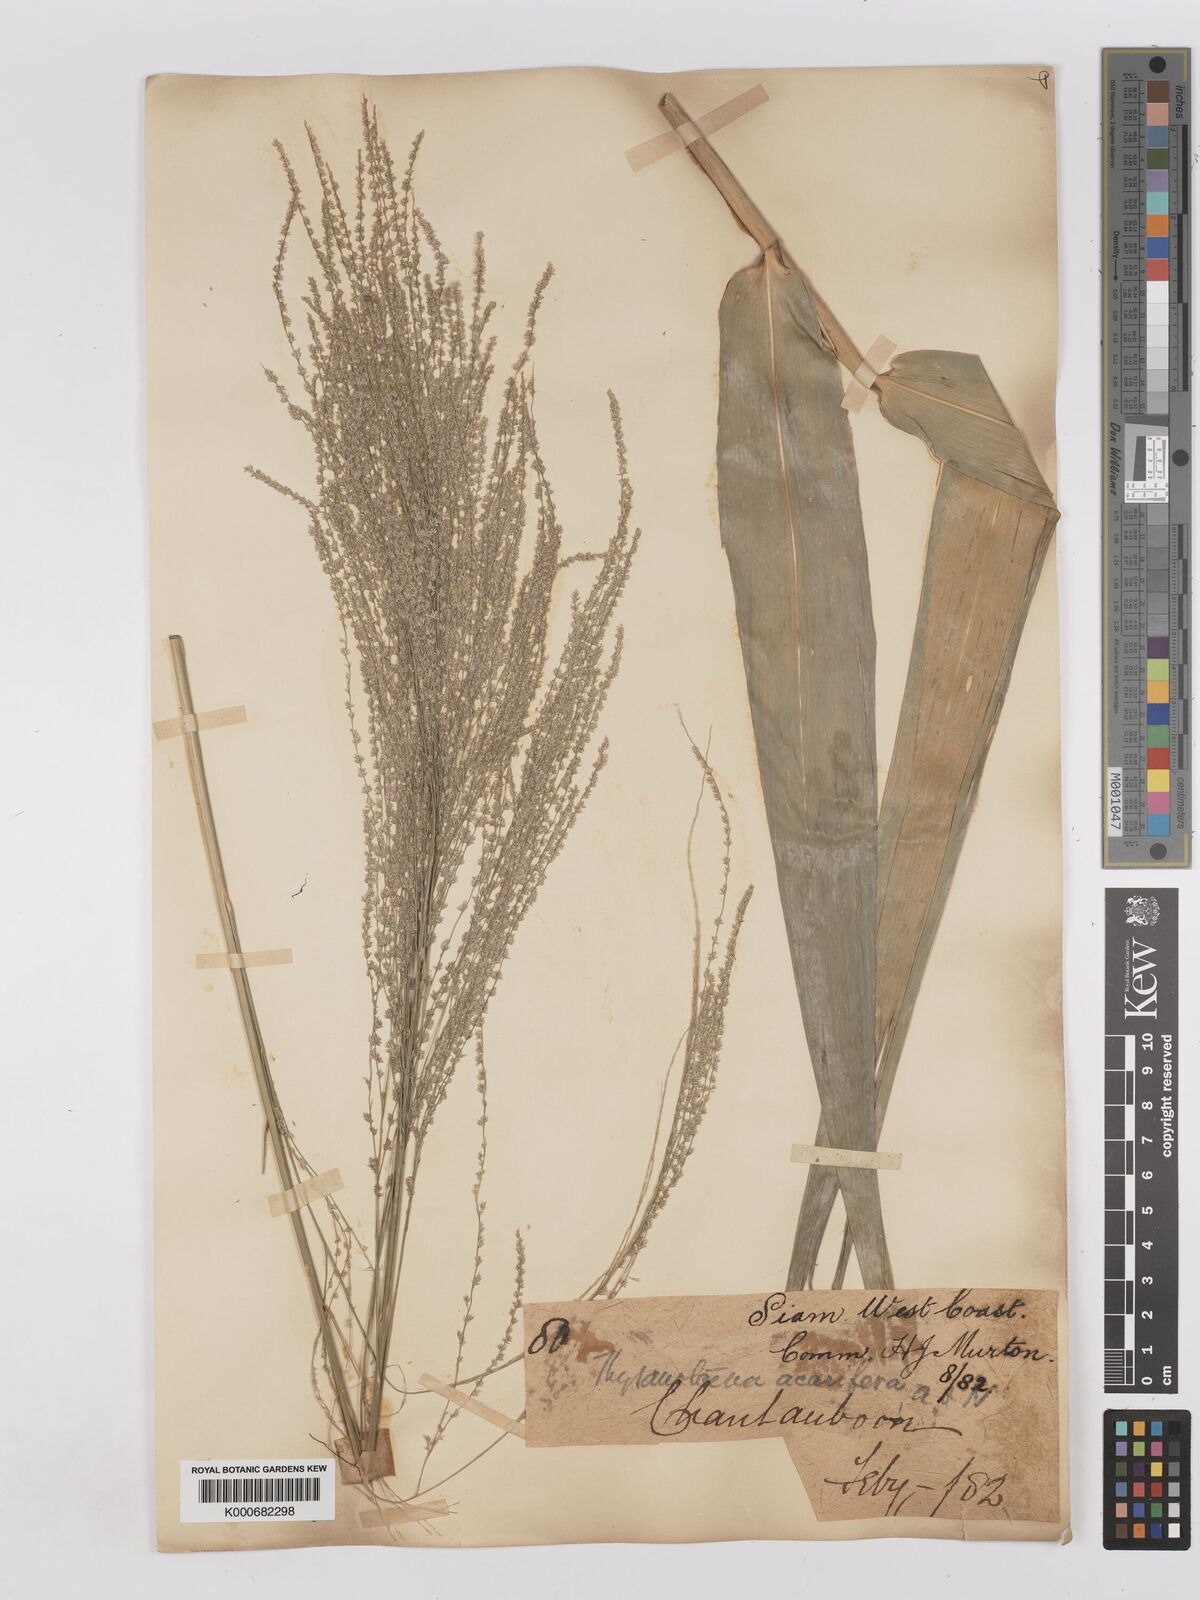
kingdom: Plantae
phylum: Tracheophyta
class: Liliopsida
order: Poales
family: Poaceae
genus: Thysanolaena
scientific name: Thysanolaena latifolia
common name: Tiger grass
